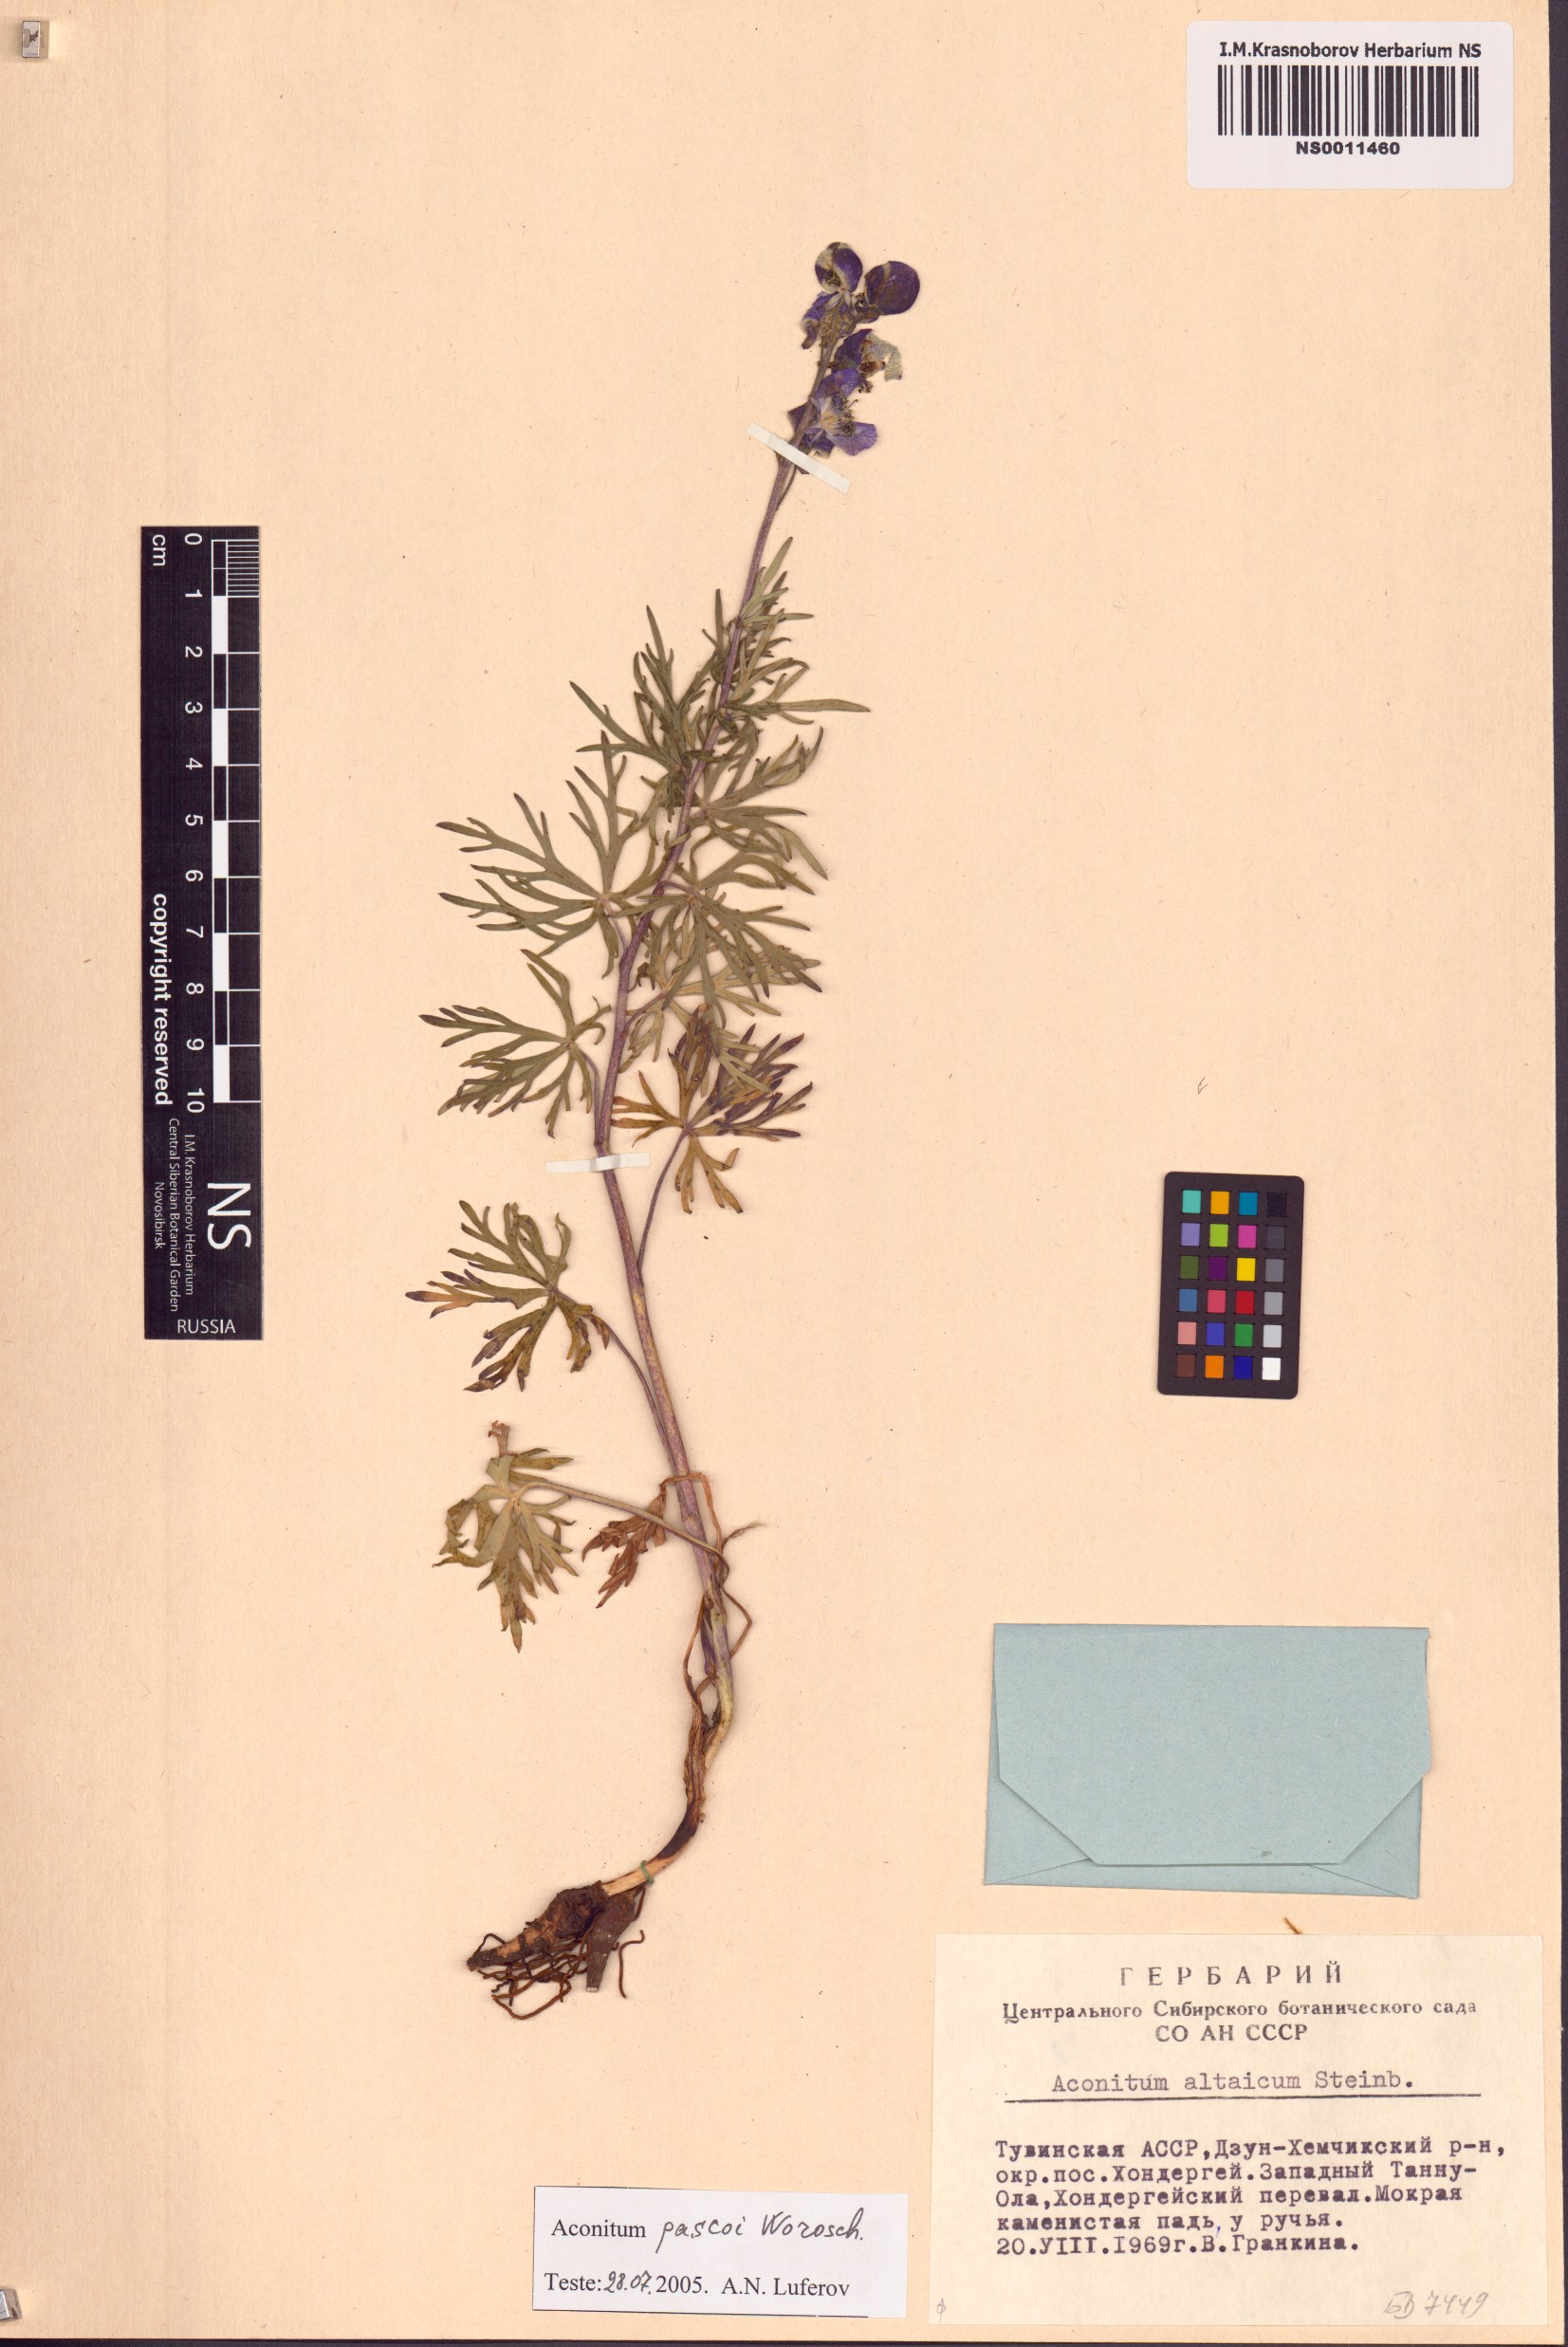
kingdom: Plantae
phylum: Tracheophyta
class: Magnoliopsida
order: Ranunculales
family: Ranunculaceae
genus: Aconitum
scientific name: Aconitum pascoi
